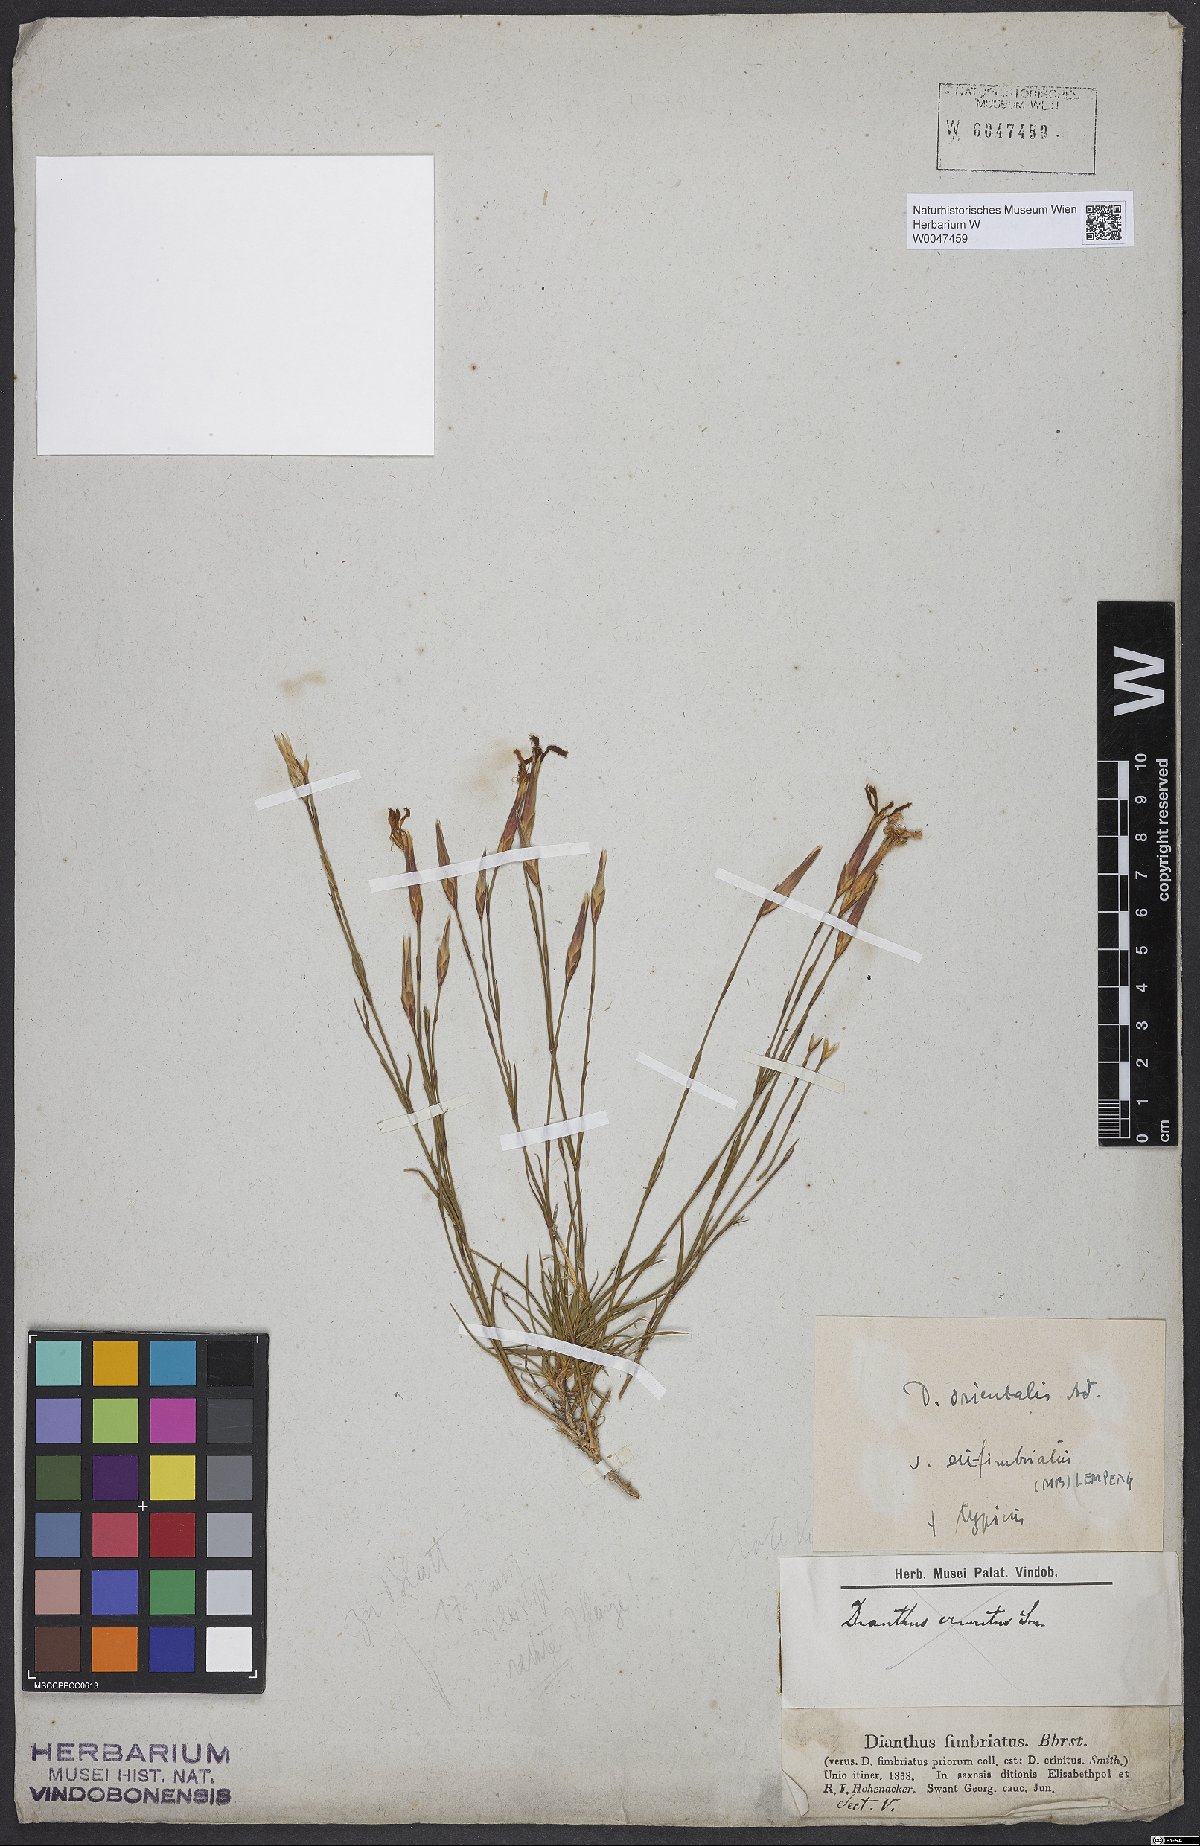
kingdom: Plantae
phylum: Tracheophyta
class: Magnoliopsida
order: Caryophyllales
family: Caryophyllaceae
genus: Dianthus
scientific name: Dianthus broteri
